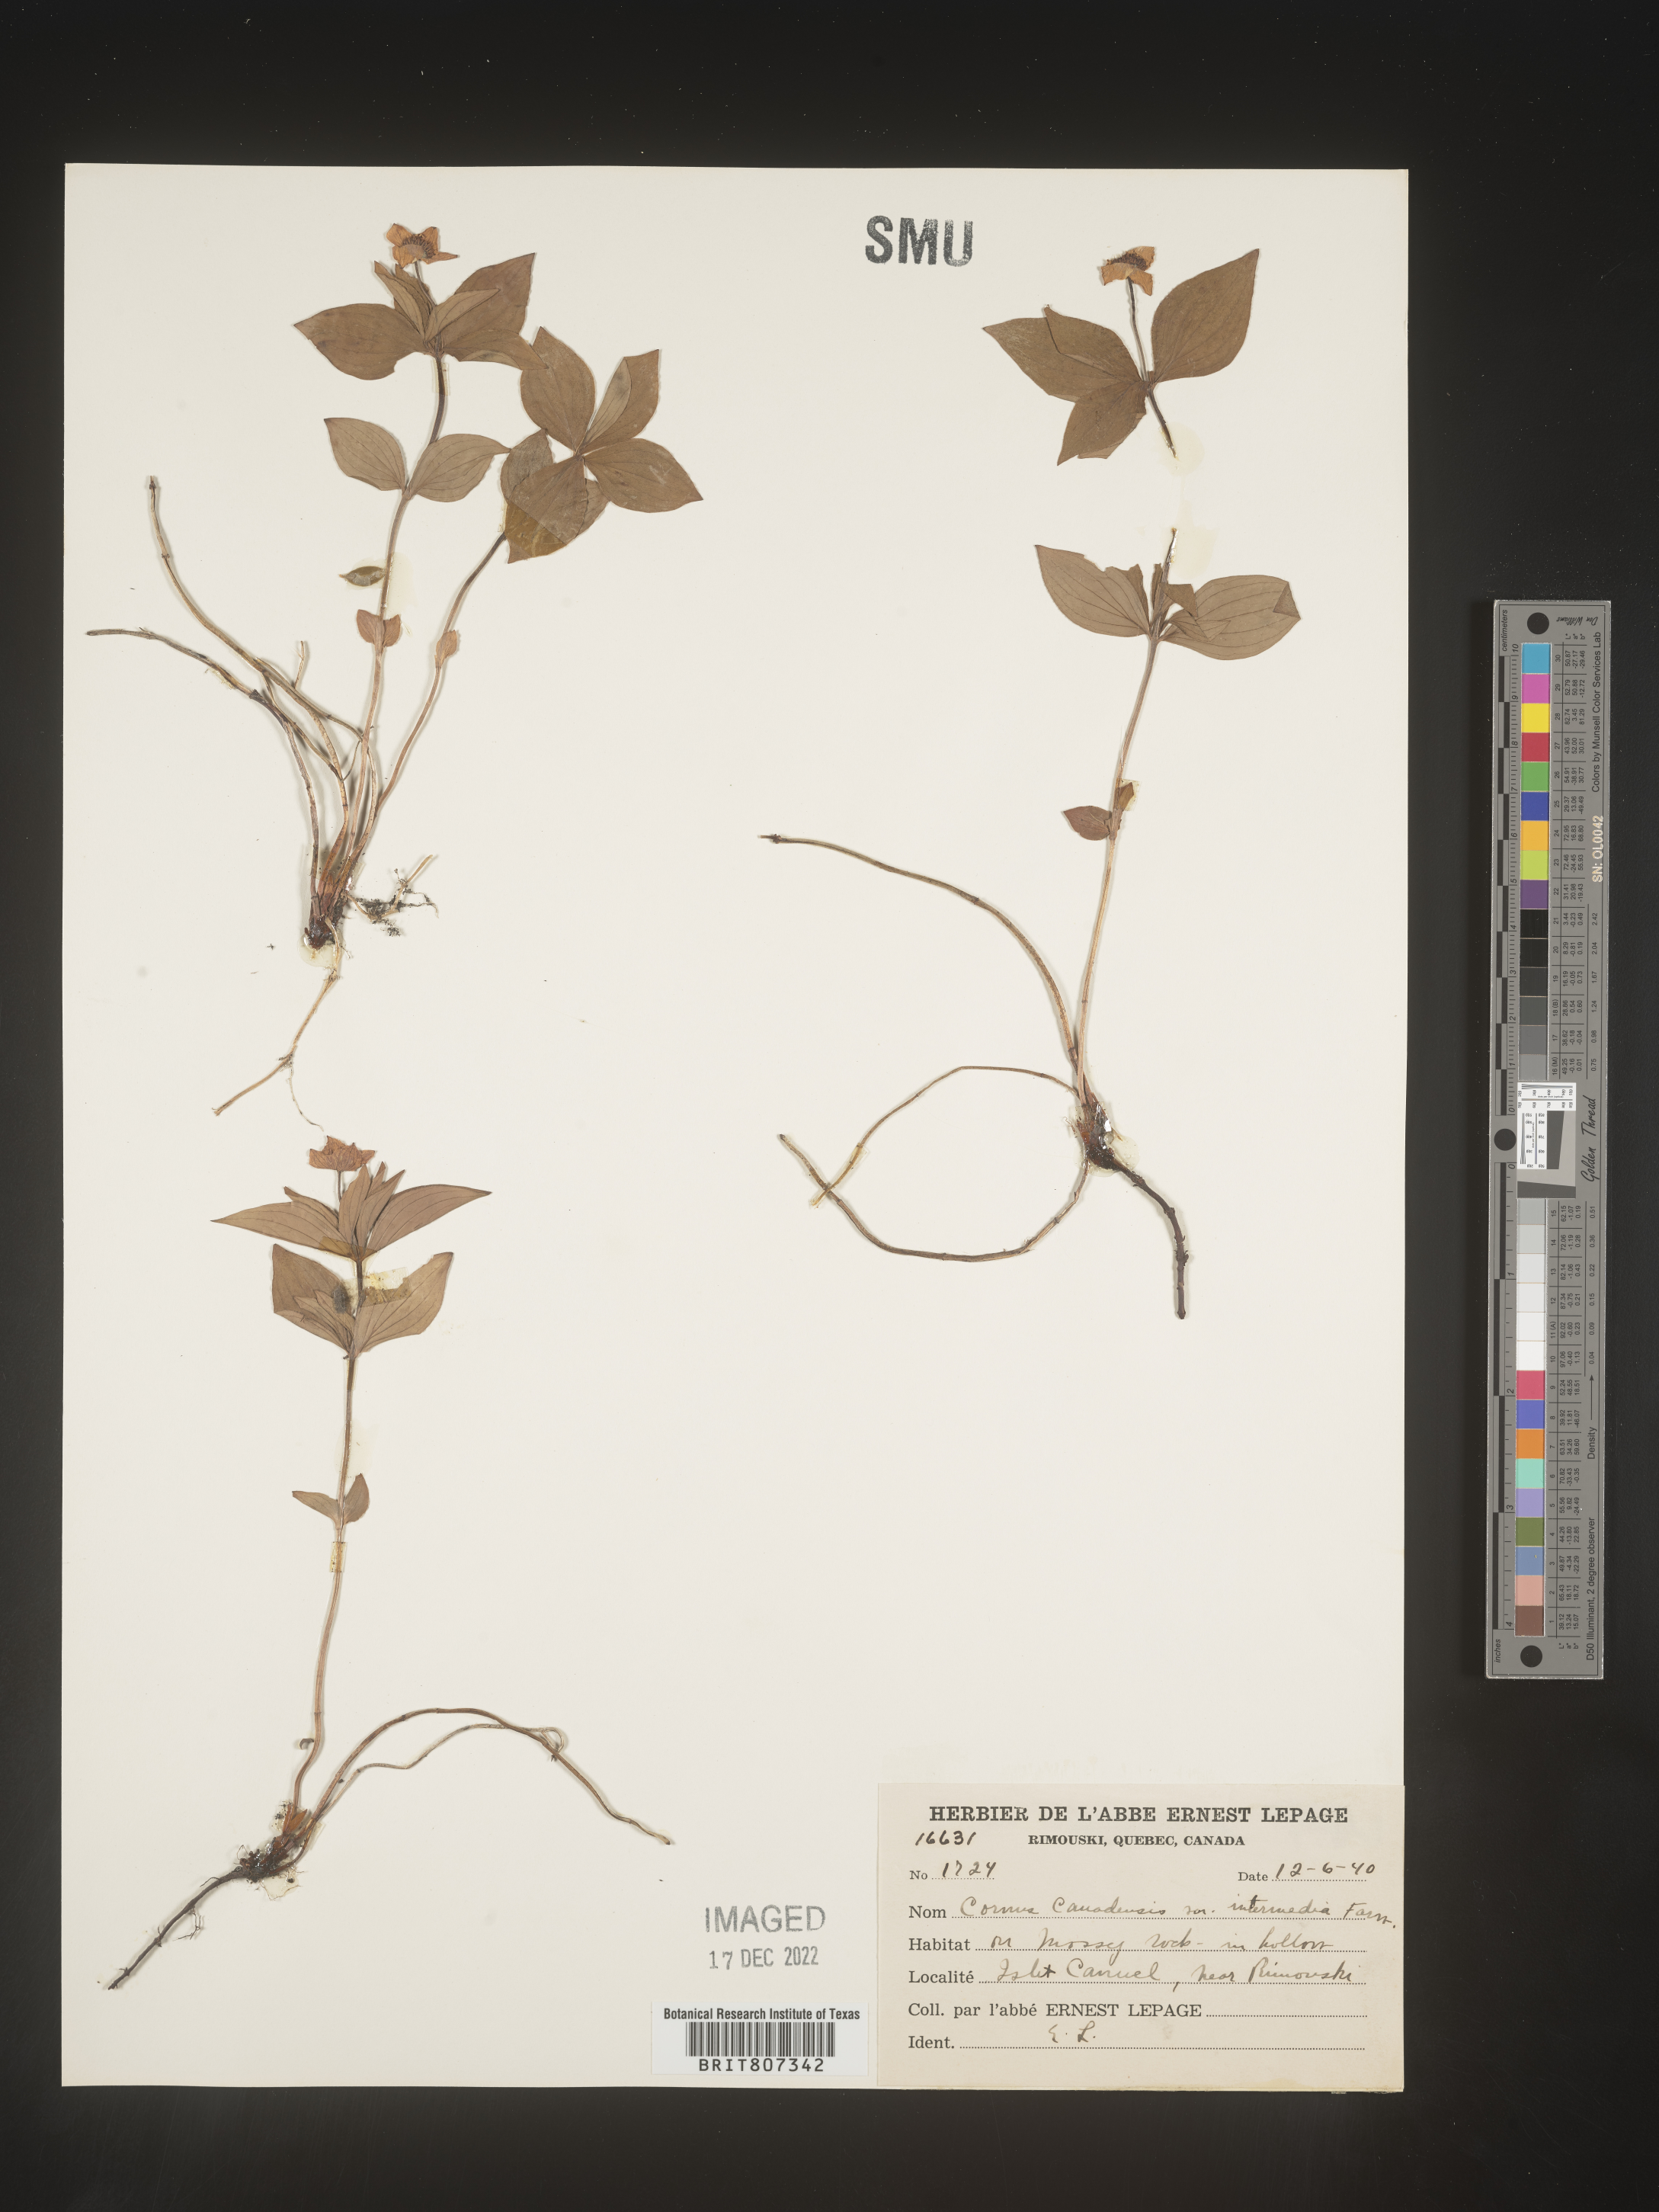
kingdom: Plantae
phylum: Tracheophyta
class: Magnoliopsida
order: Cornales
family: Cornaceae
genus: Cornus
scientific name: Cornus canadensis
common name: Creeping dogwood
